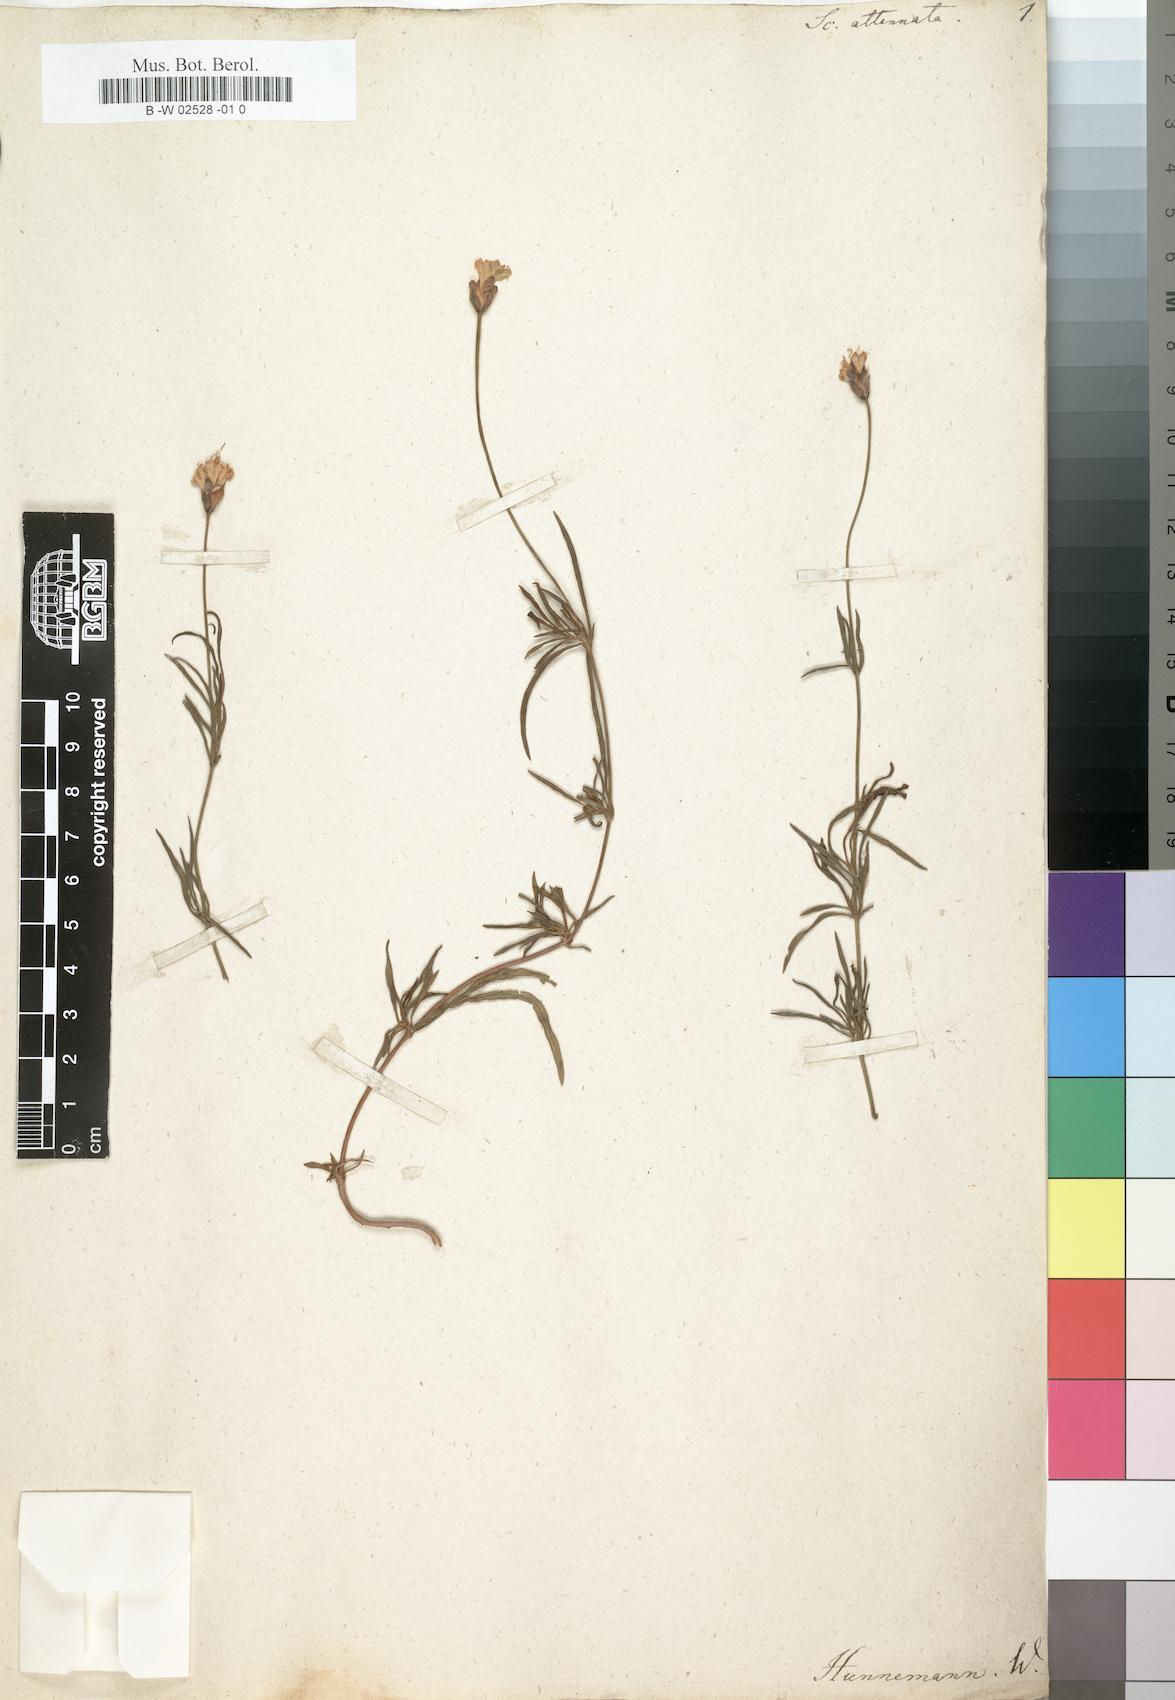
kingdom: Plantae
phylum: Tracheophyta
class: Magnoliopsida
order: Dipsacales
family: Caprifoliaceae
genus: Cephalaria
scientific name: Cephalaria attenuata
